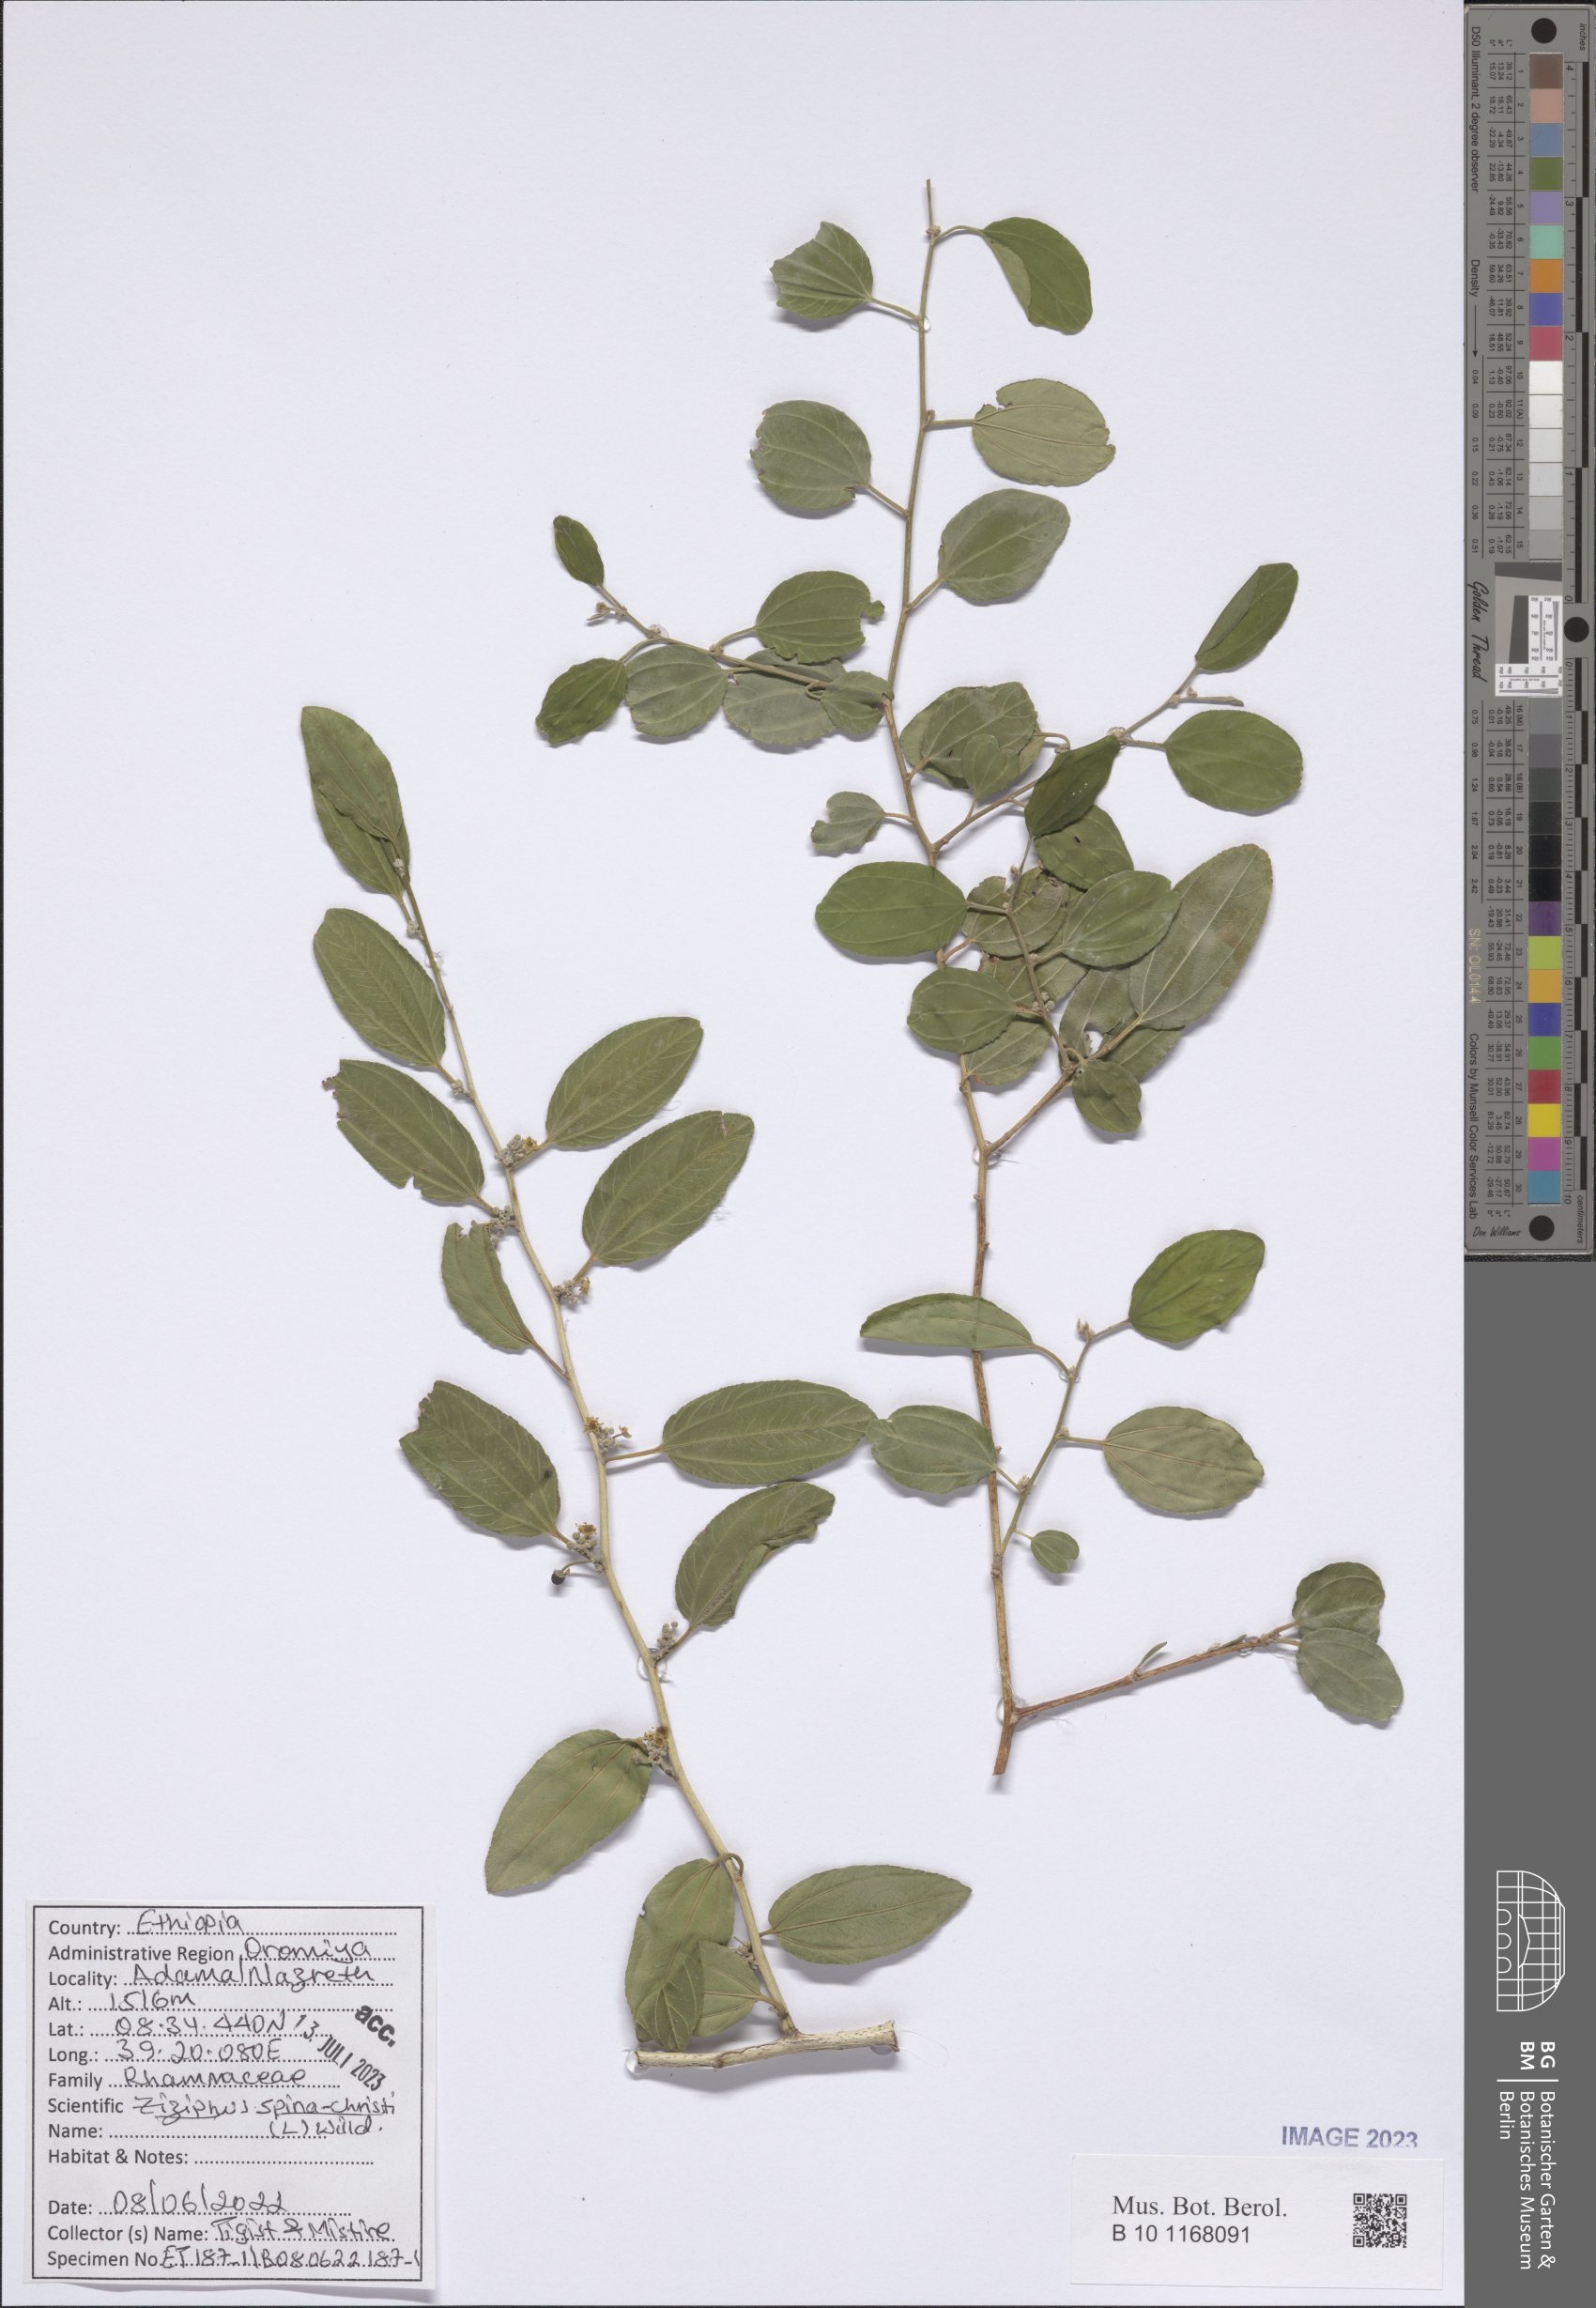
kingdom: Plantae
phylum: Tracheophyta
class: Magnoliopsida
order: Rosales
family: Rhamnaceae
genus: Ziziphus
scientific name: Ziziphus spina-christi
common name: Syrian christ-thorn
